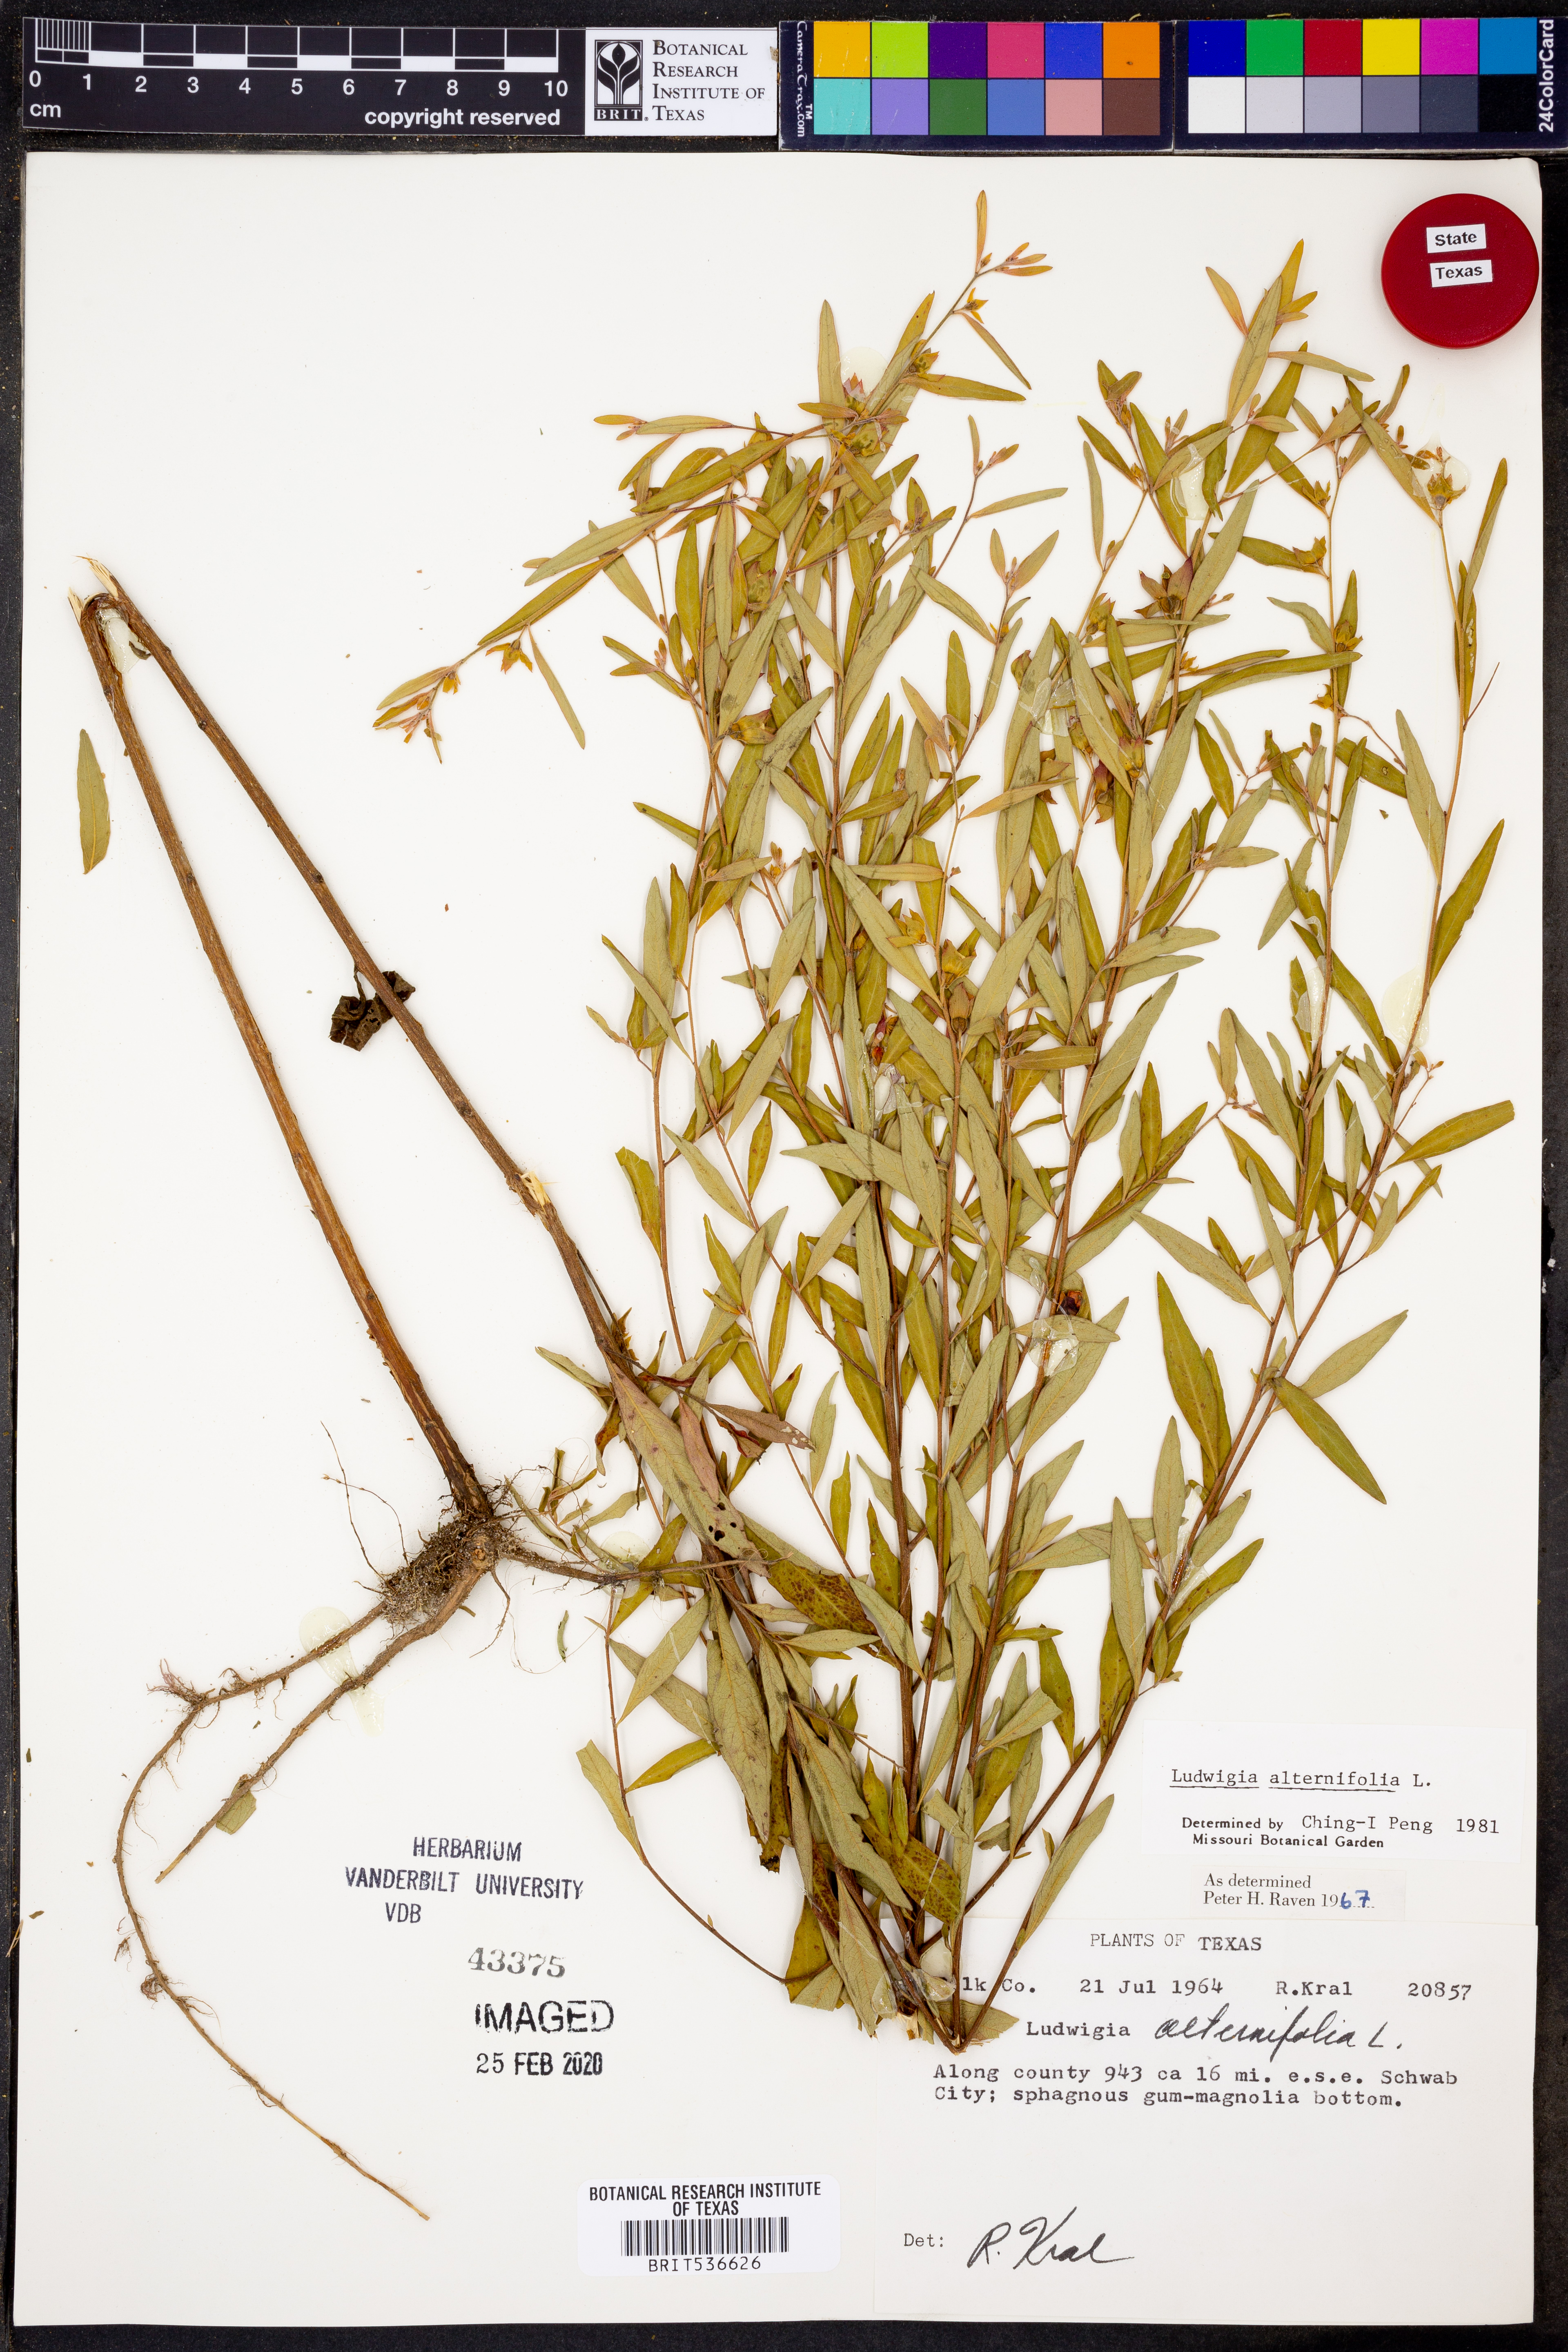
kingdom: Plantae
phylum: Tracheophyta
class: Magnoliopsida
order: Myrtales
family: Onagraceae
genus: Ludwigia
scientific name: Ludwigia alternifolia
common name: Rattlebox
